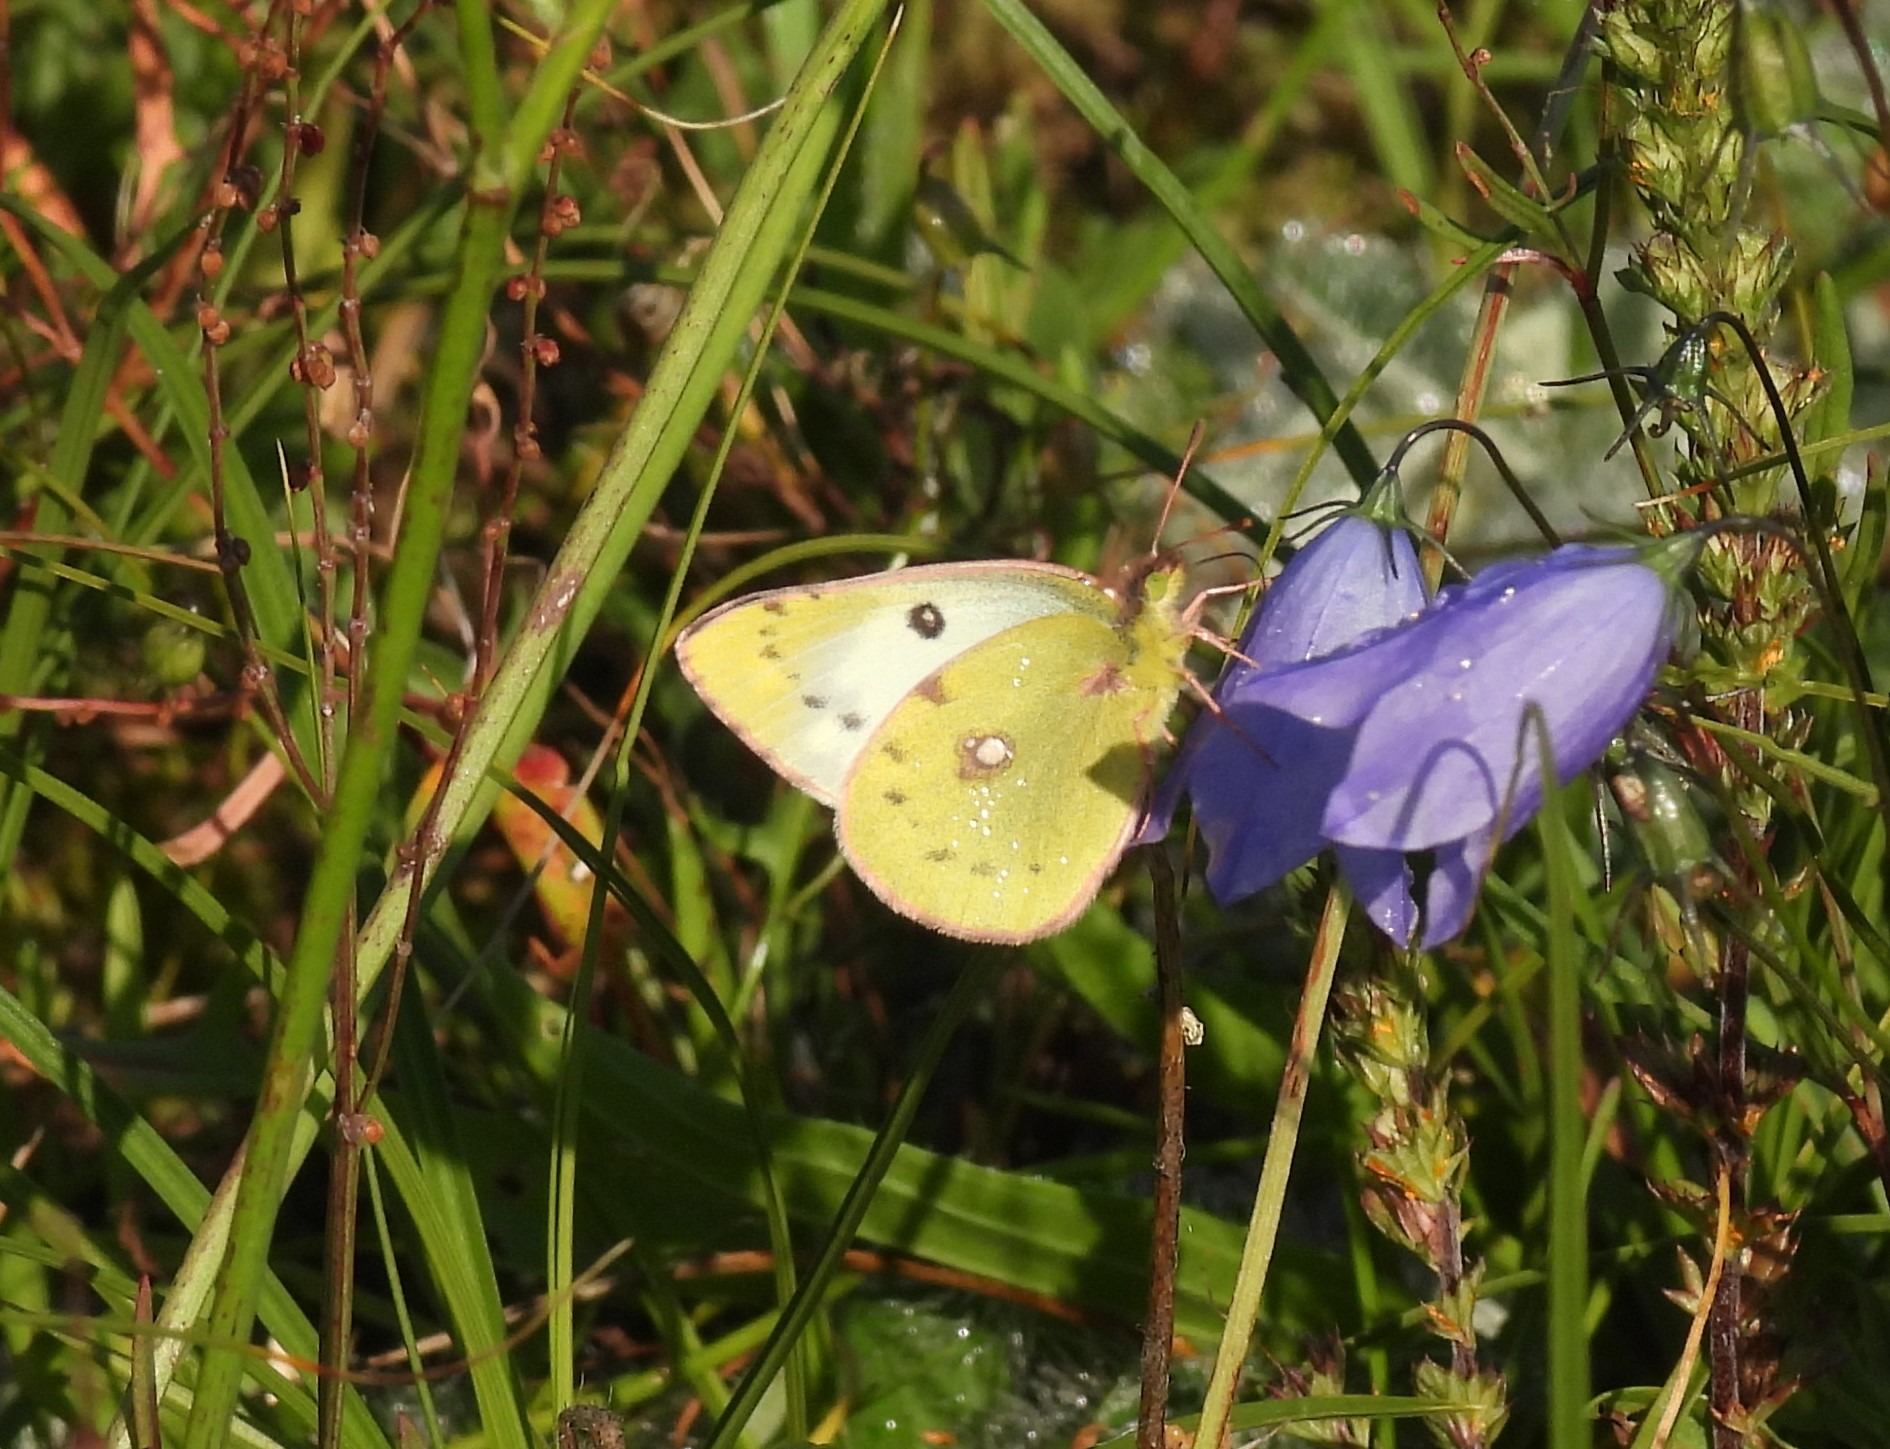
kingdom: Animalia
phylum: Arthropoda
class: Insecta
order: Lepidoptera
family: Pieridae
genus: Colias
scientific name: Colias hyale
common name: Gul høsommerfugl
